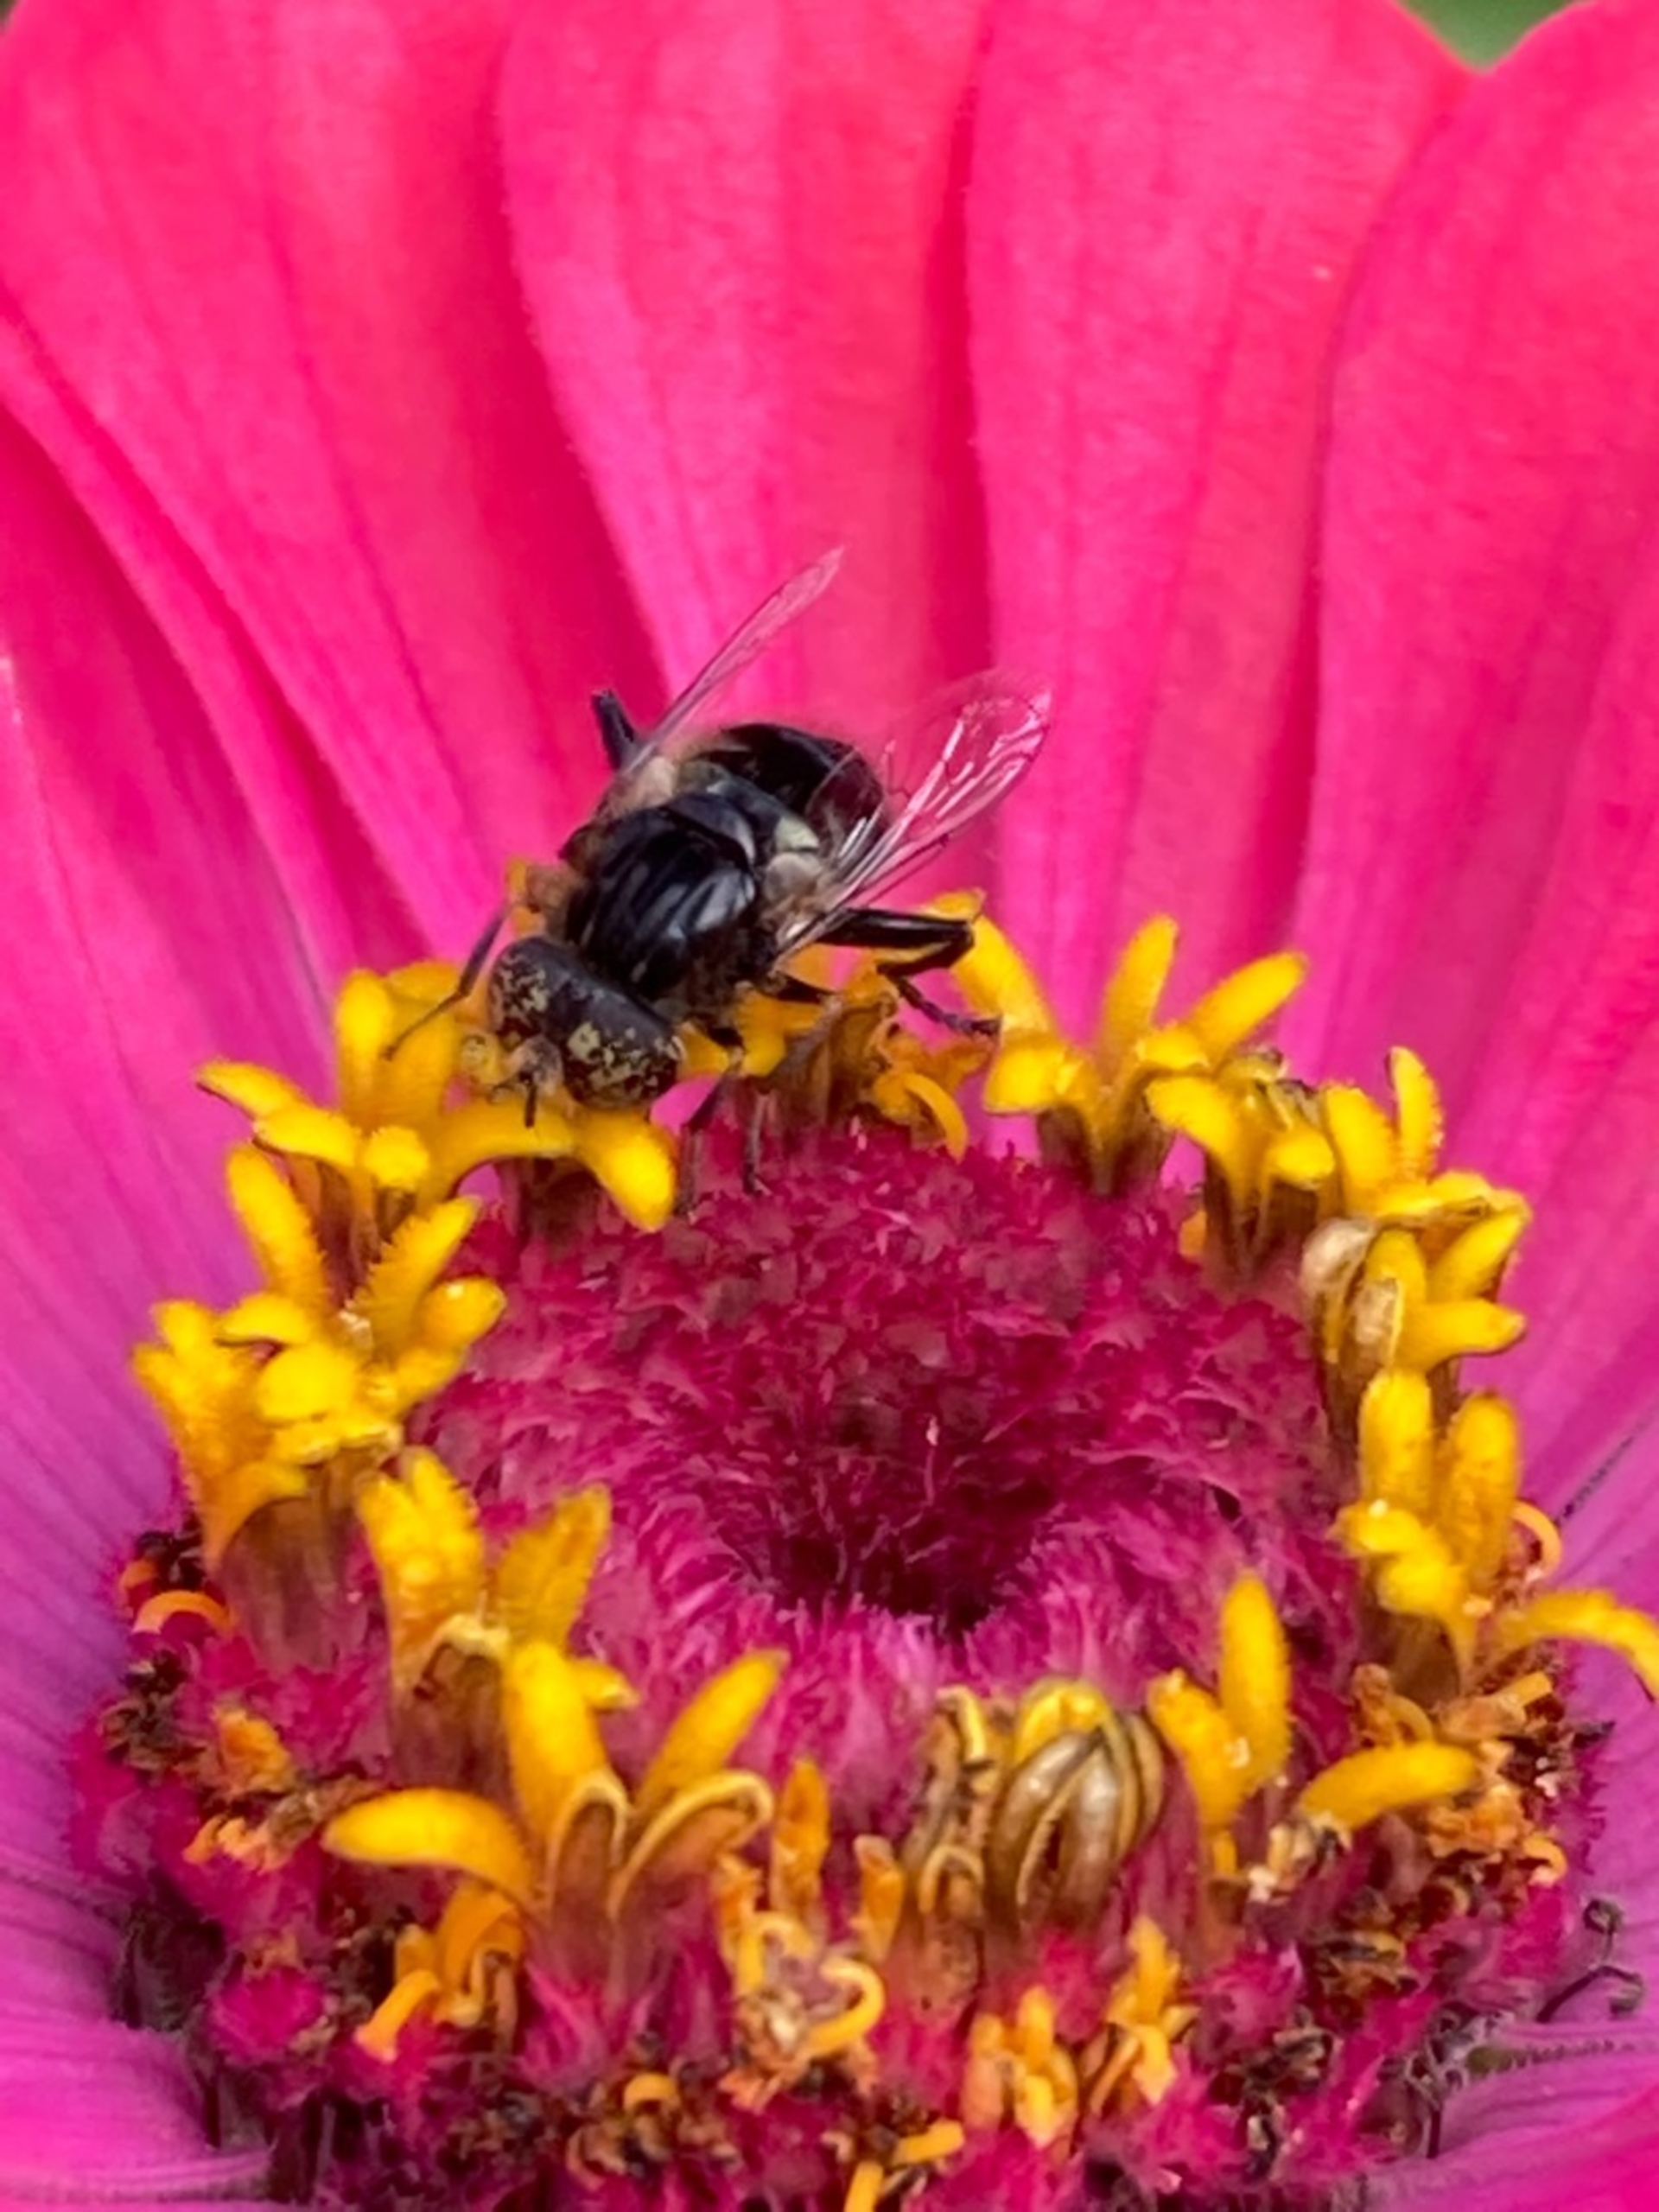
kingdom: Animalia
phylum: Arthropoda
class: Insecta
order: Diptera
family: Syrphidae
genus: Eristalinus
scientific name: Eristalinus sepulchralis
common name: Gødnings-dyndflue
